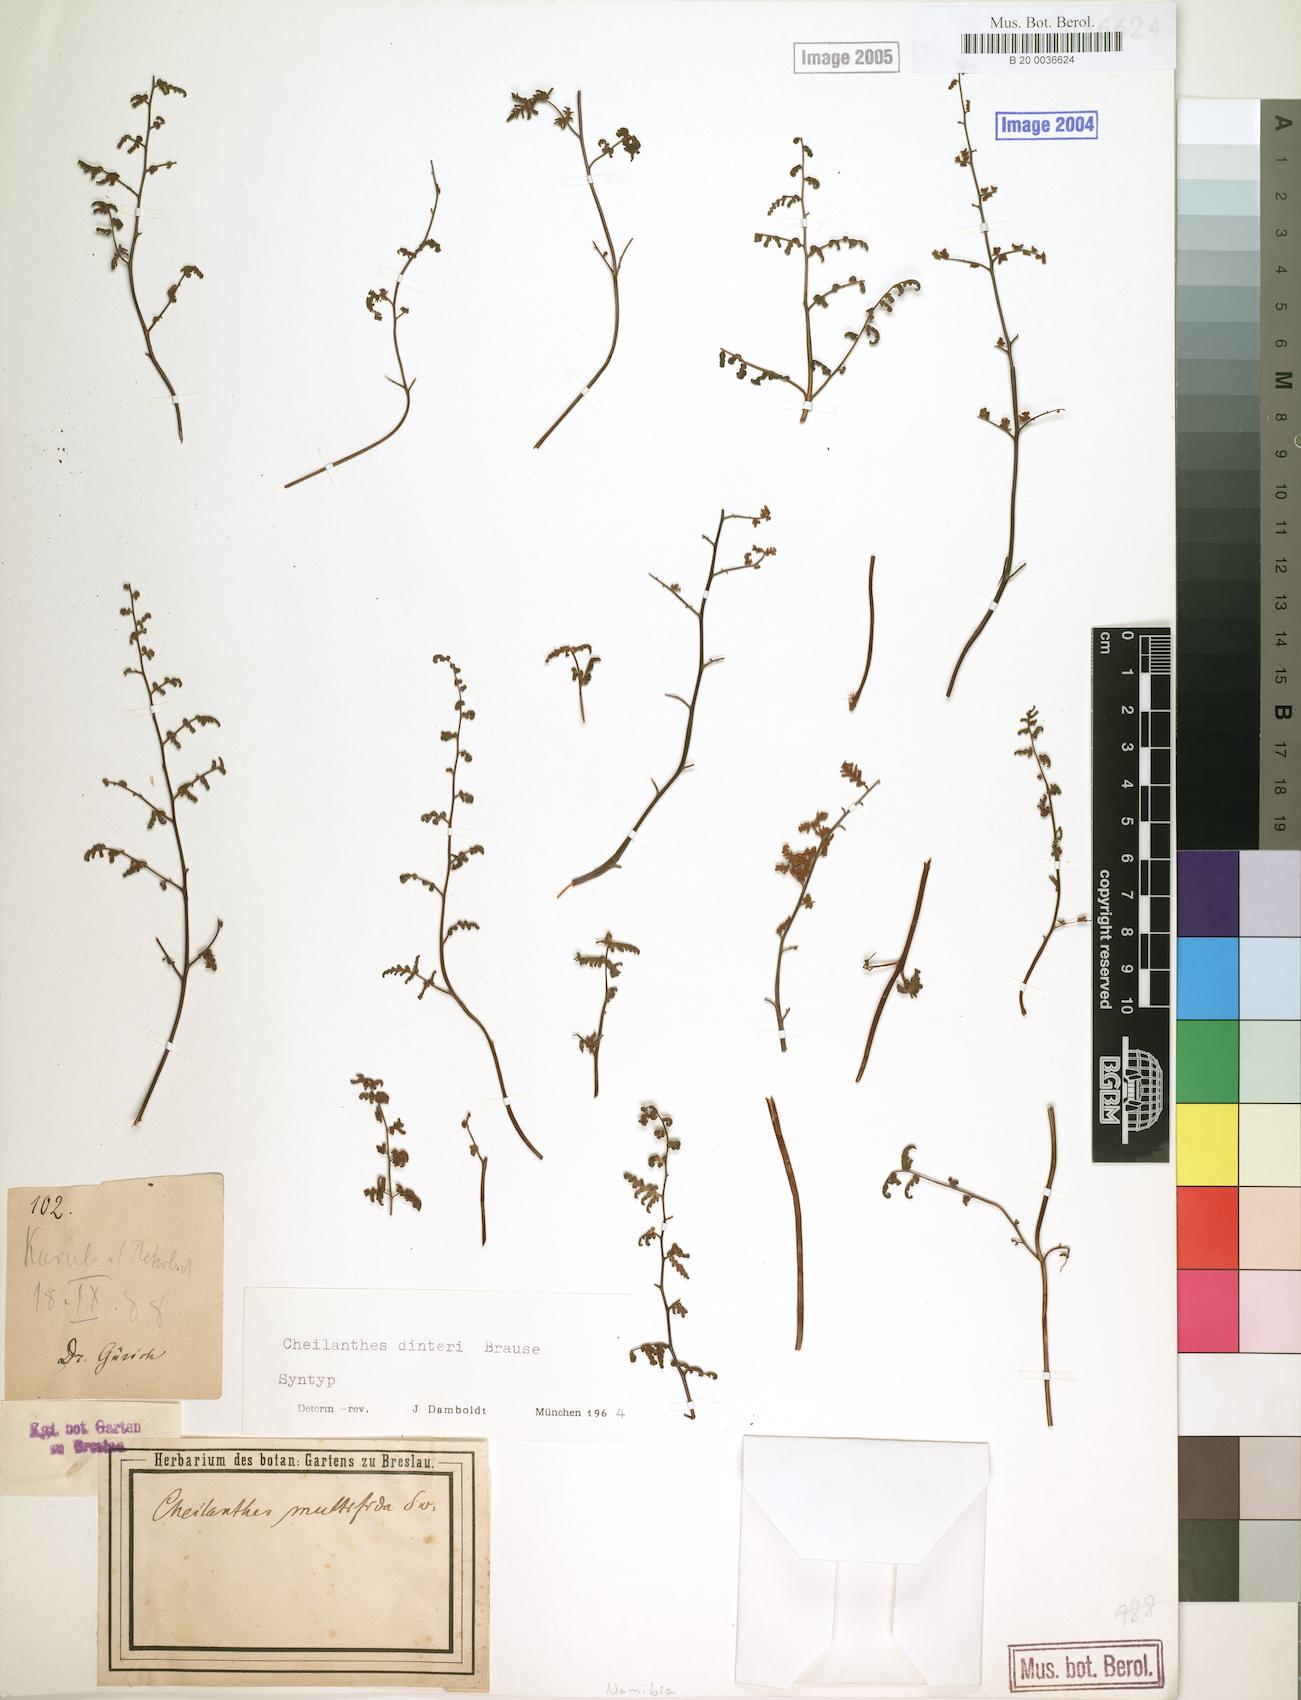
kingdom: Plantae
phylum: Tracheophyta
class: Polypodiopsida
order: Polypodiales
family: Pteridaceae
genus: Cheilanthes
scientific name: Cheilanthes dinteri
